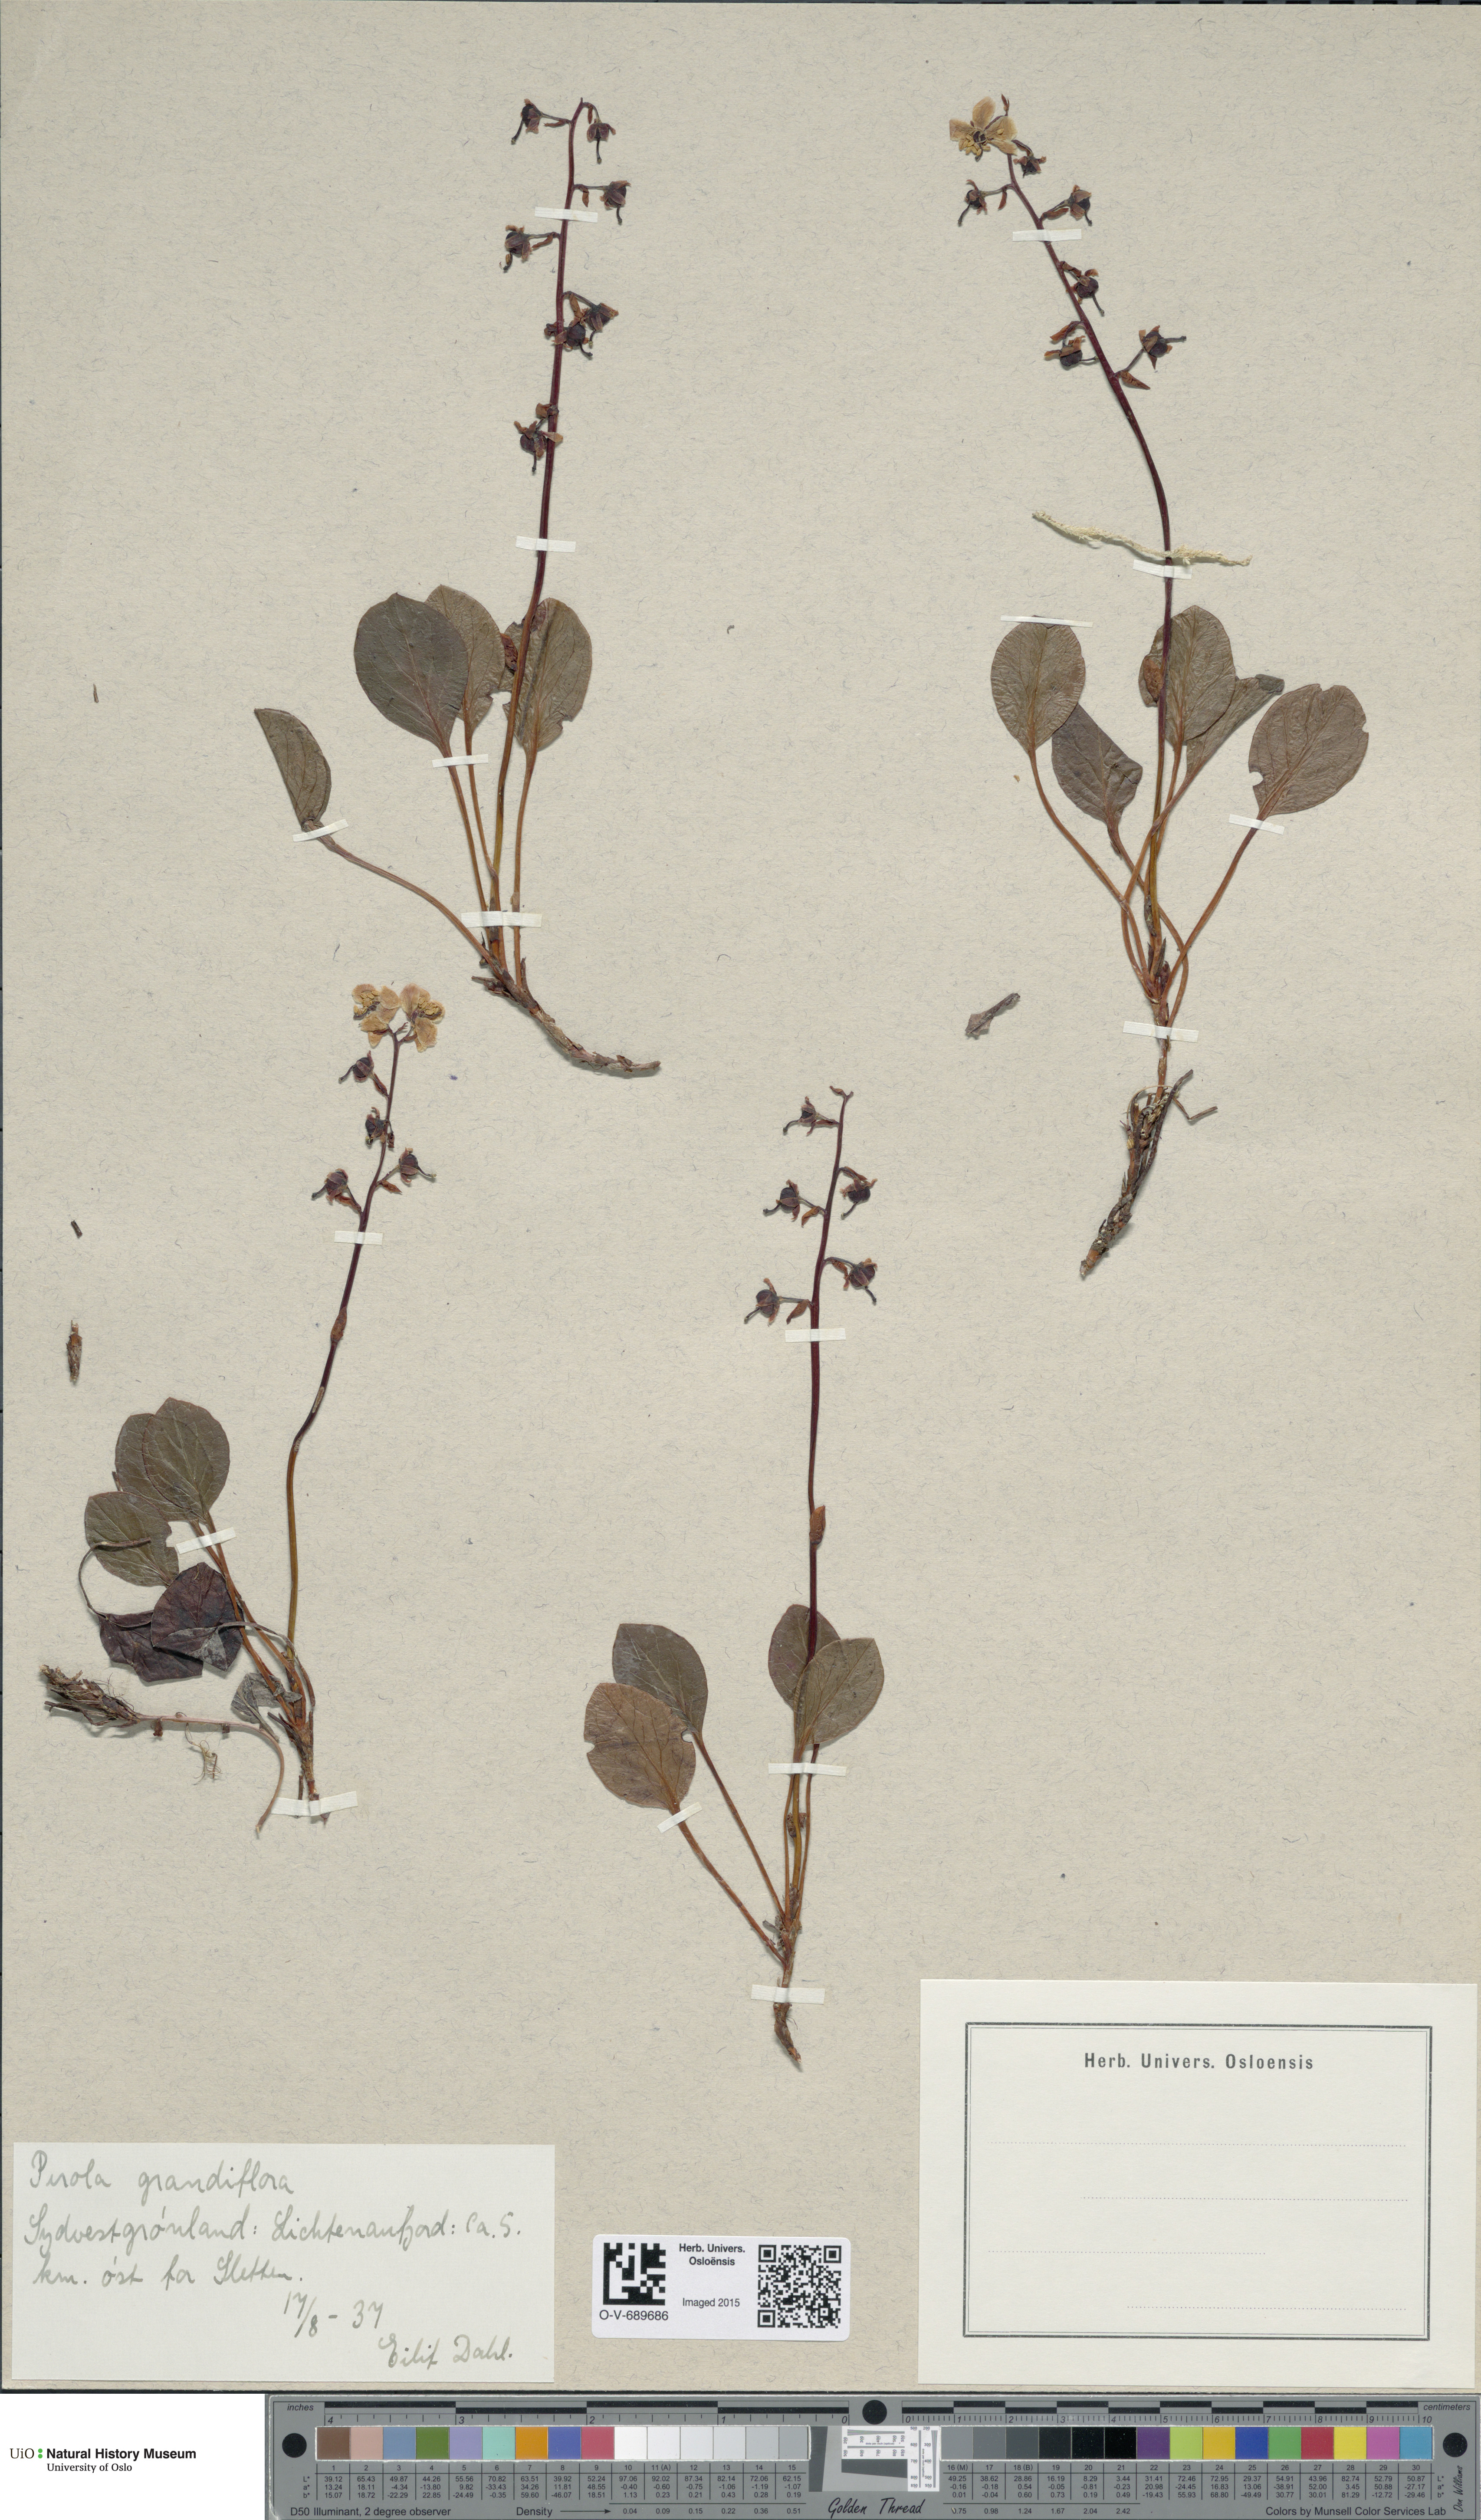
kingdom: Plantae
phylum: Tracheophyta
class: Magnoliopsida
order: Ericales
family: Ericaceae
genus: Pyrola
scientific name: Pyrola grandiflora
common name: Arctic pyrola
